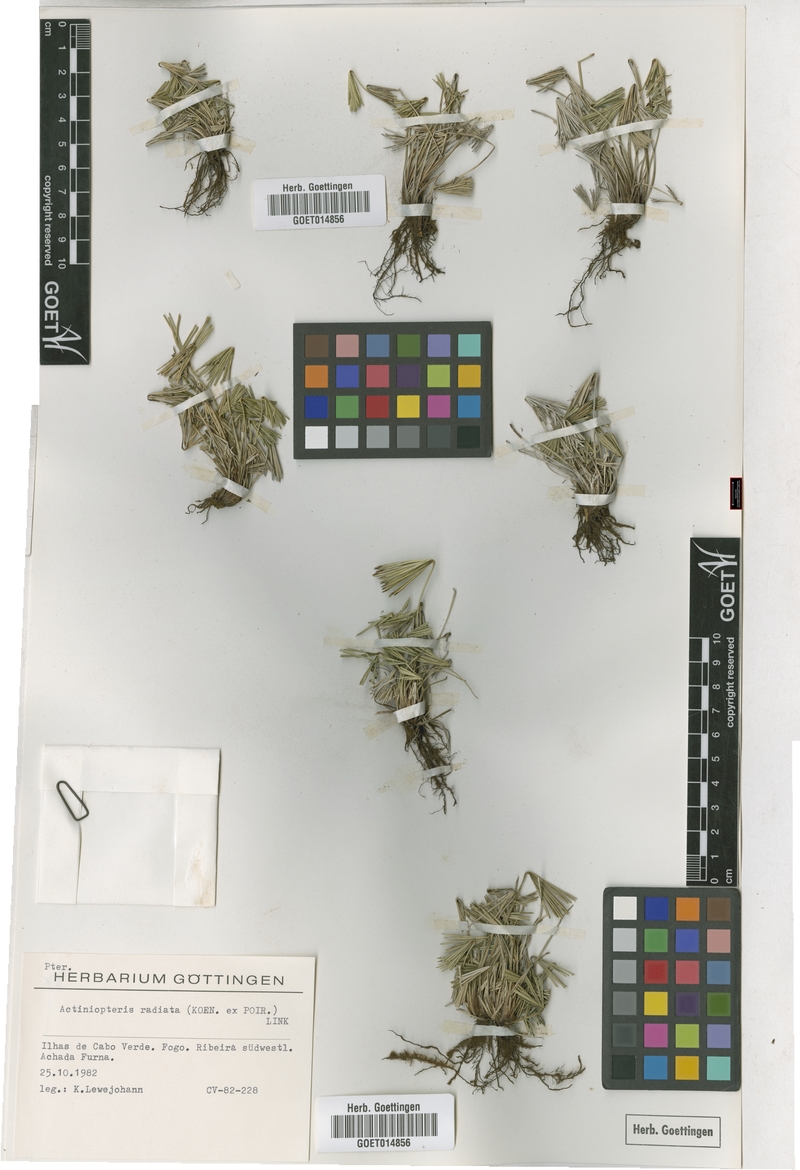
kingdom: Plantae
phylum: Tracheophyta
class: Polypodiopsida
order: Polypodiales
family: Pteridaceae
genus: Actiniopteris
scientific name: Actiniopteris radiata
